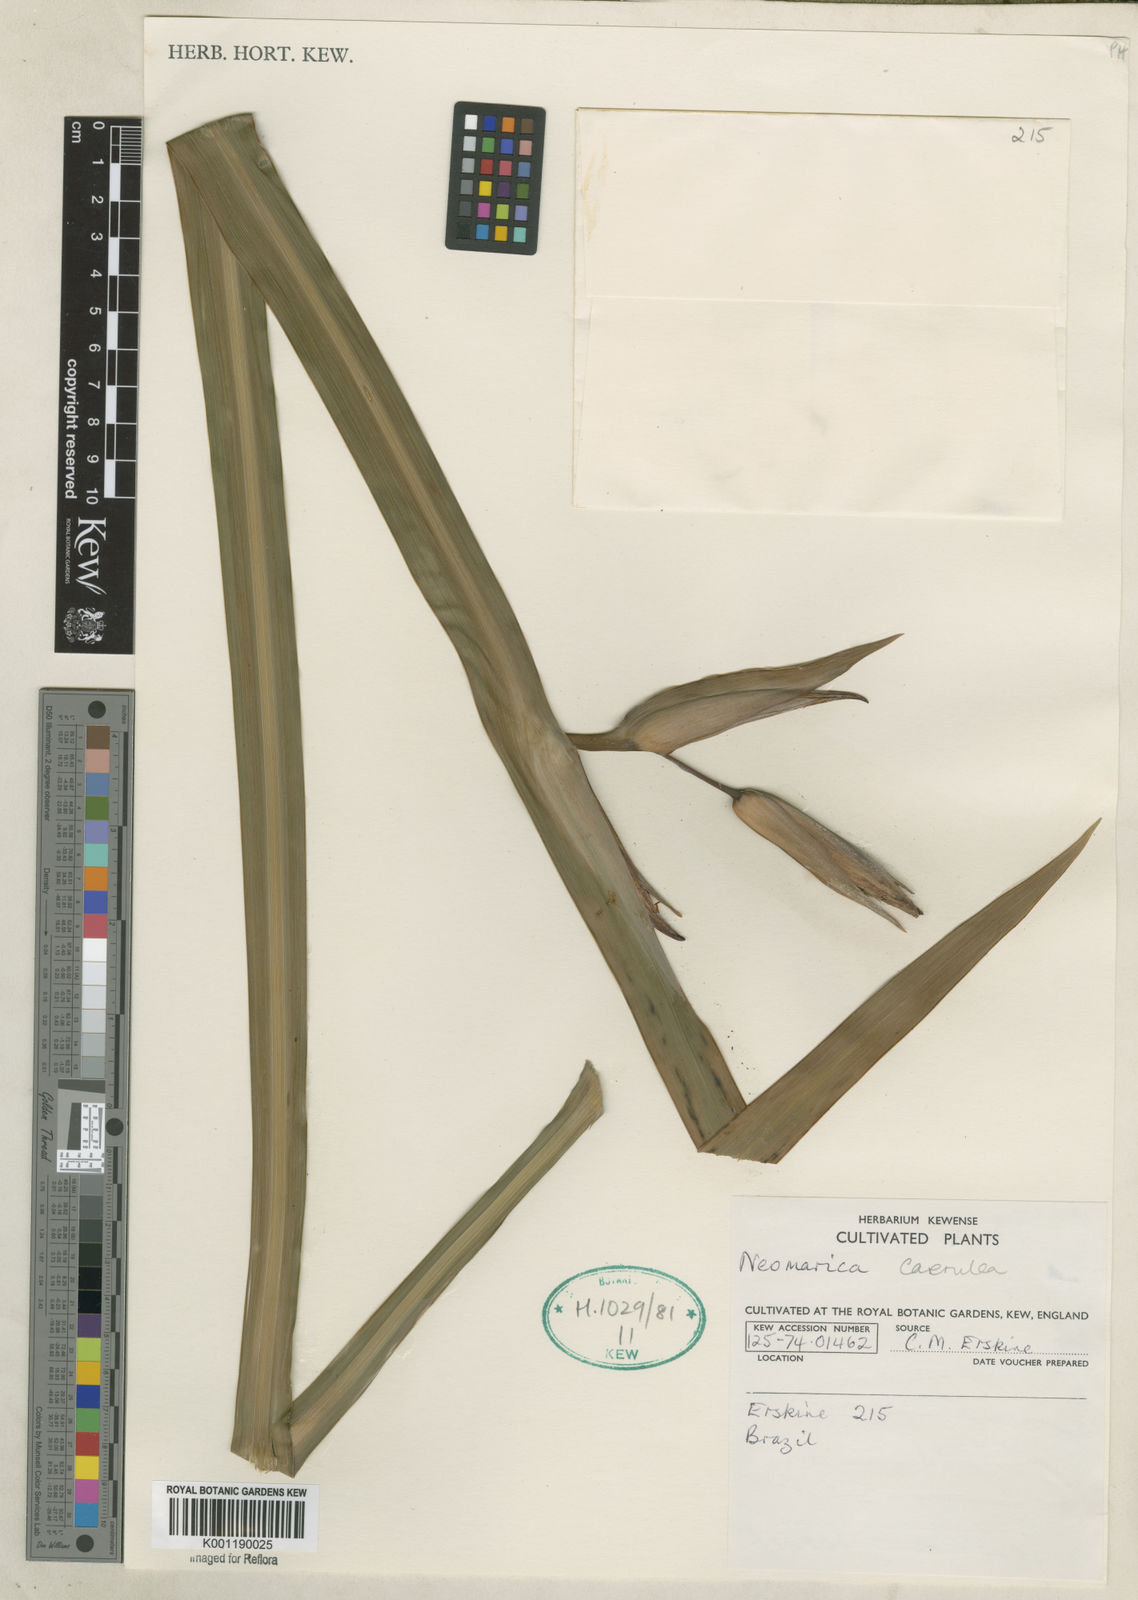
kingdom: Plantae
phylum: Tracheophyta
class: Liliopsida
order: Asparagales
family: Iridaceae
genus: Trimezia
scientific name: Trimezia
